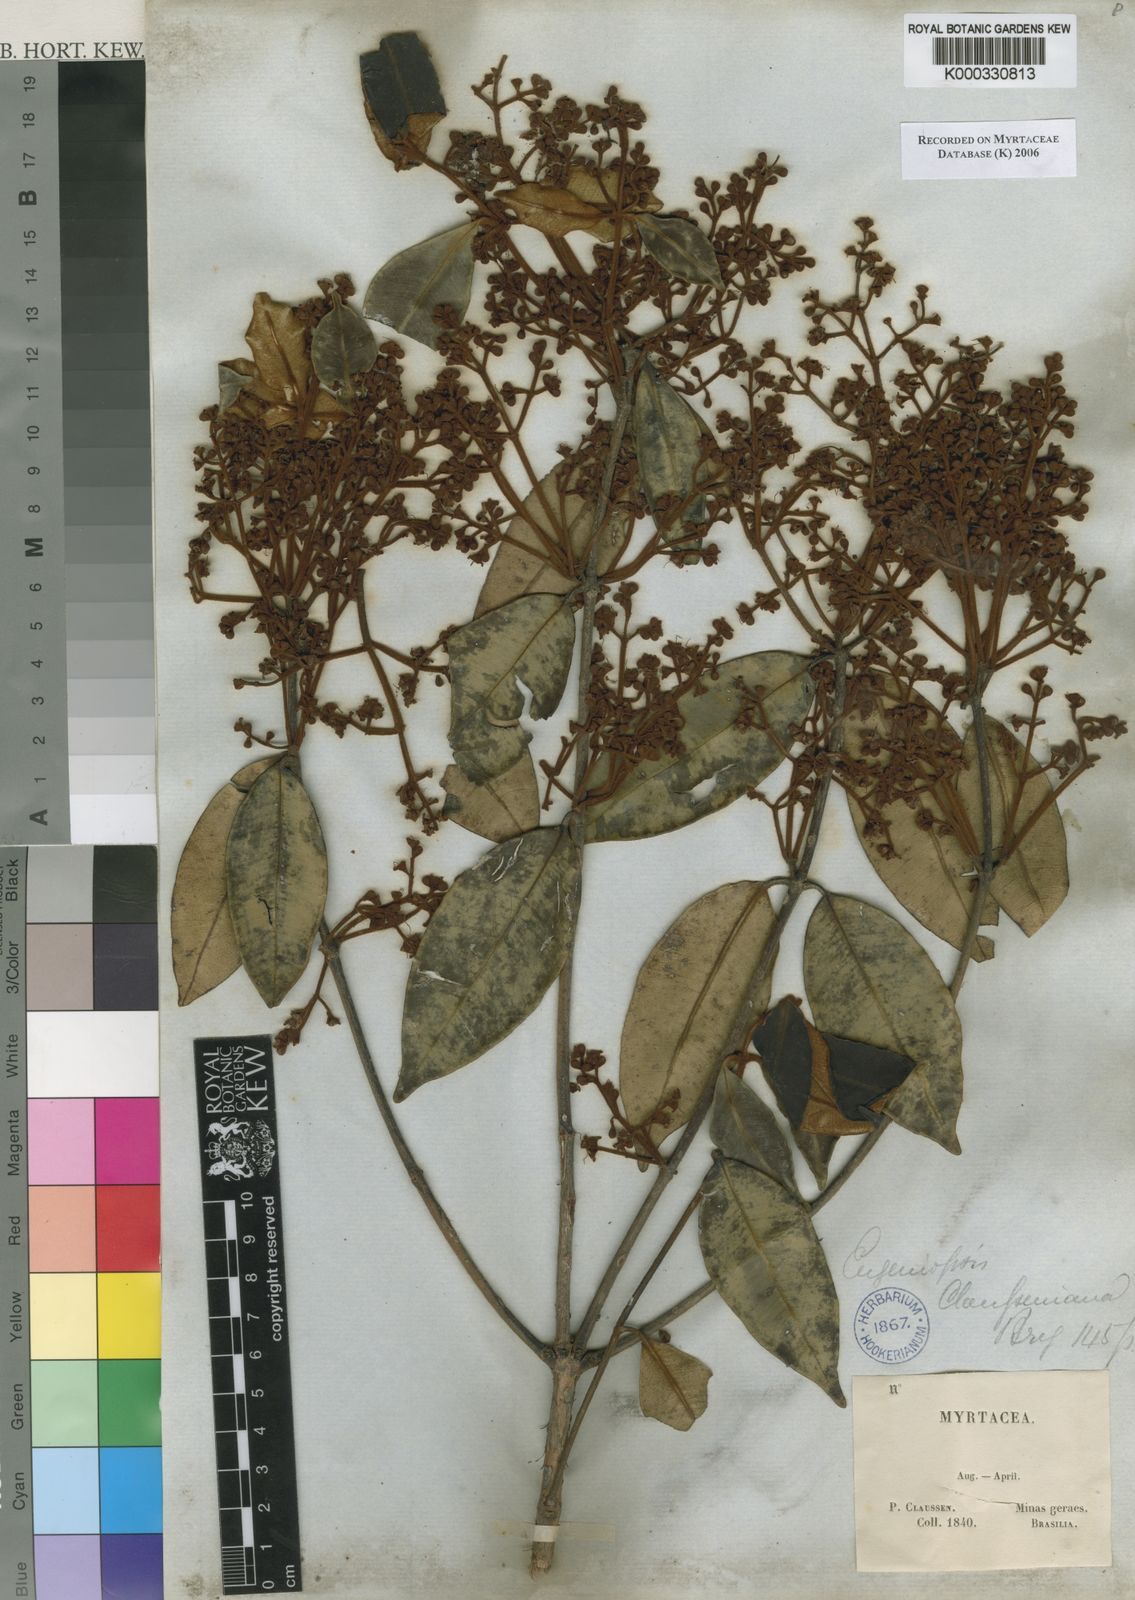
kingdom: Plantae
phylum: Tracheophyta
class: Magnoliopsida
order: Myrtales
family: Myrtaceae
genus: Marlierea
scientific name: Marlierea clausseniana
